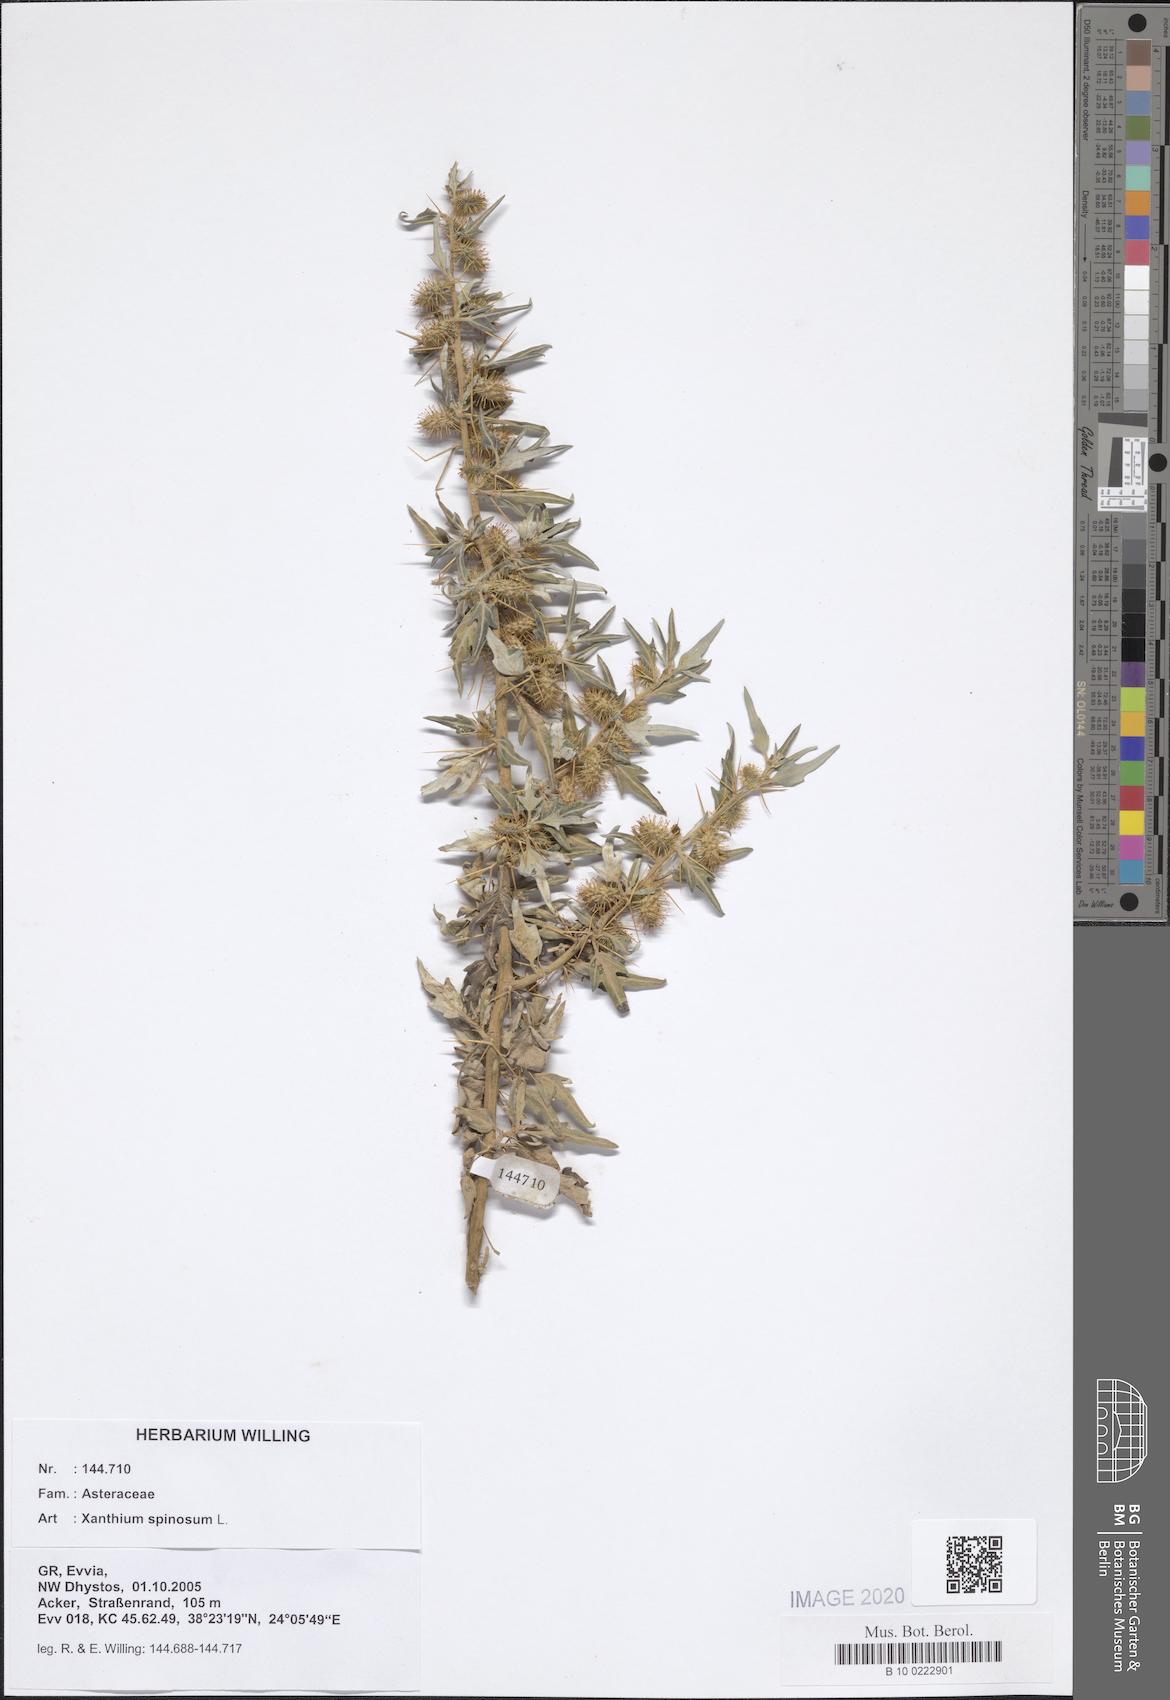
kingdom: Plantae
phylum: Tracheophyta
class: Magnoliopsida
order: Asterales
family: Asteraceae
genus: Xanthium
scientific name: Xanthium spinosum
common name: Spiny cocklebur
